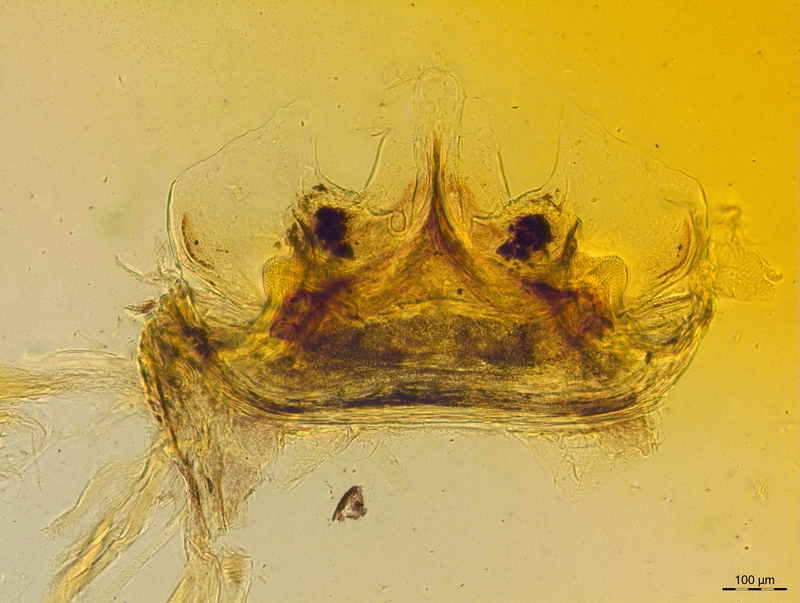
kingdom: Animalia
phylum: Arthropoda
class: Diplopoda
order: Chordeumatida
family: Craspedosomatidae
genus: Craspedosoma
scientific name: Craspedosoma taurinorum
